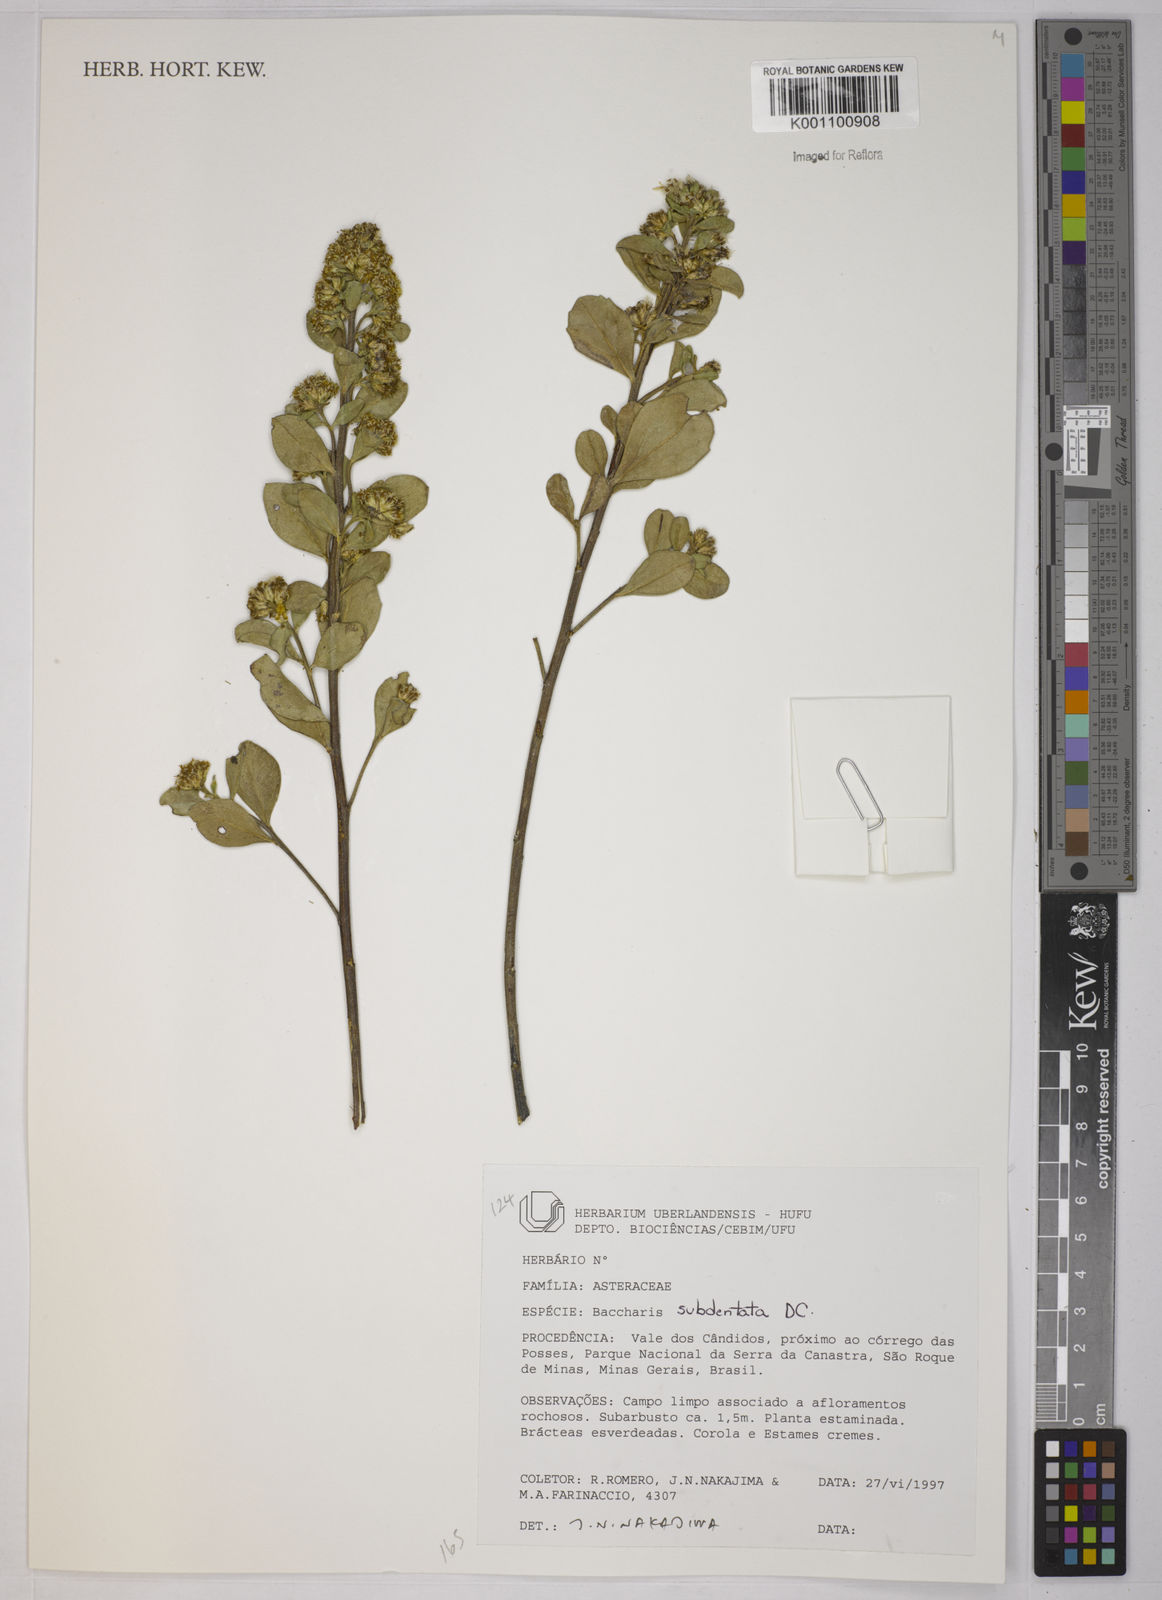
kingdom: Plantae
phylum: Tracheophyta
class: Magnoliopsida
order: Asterales
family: Asteraceae
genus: Baccharis
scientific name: Baccharis subdentata
